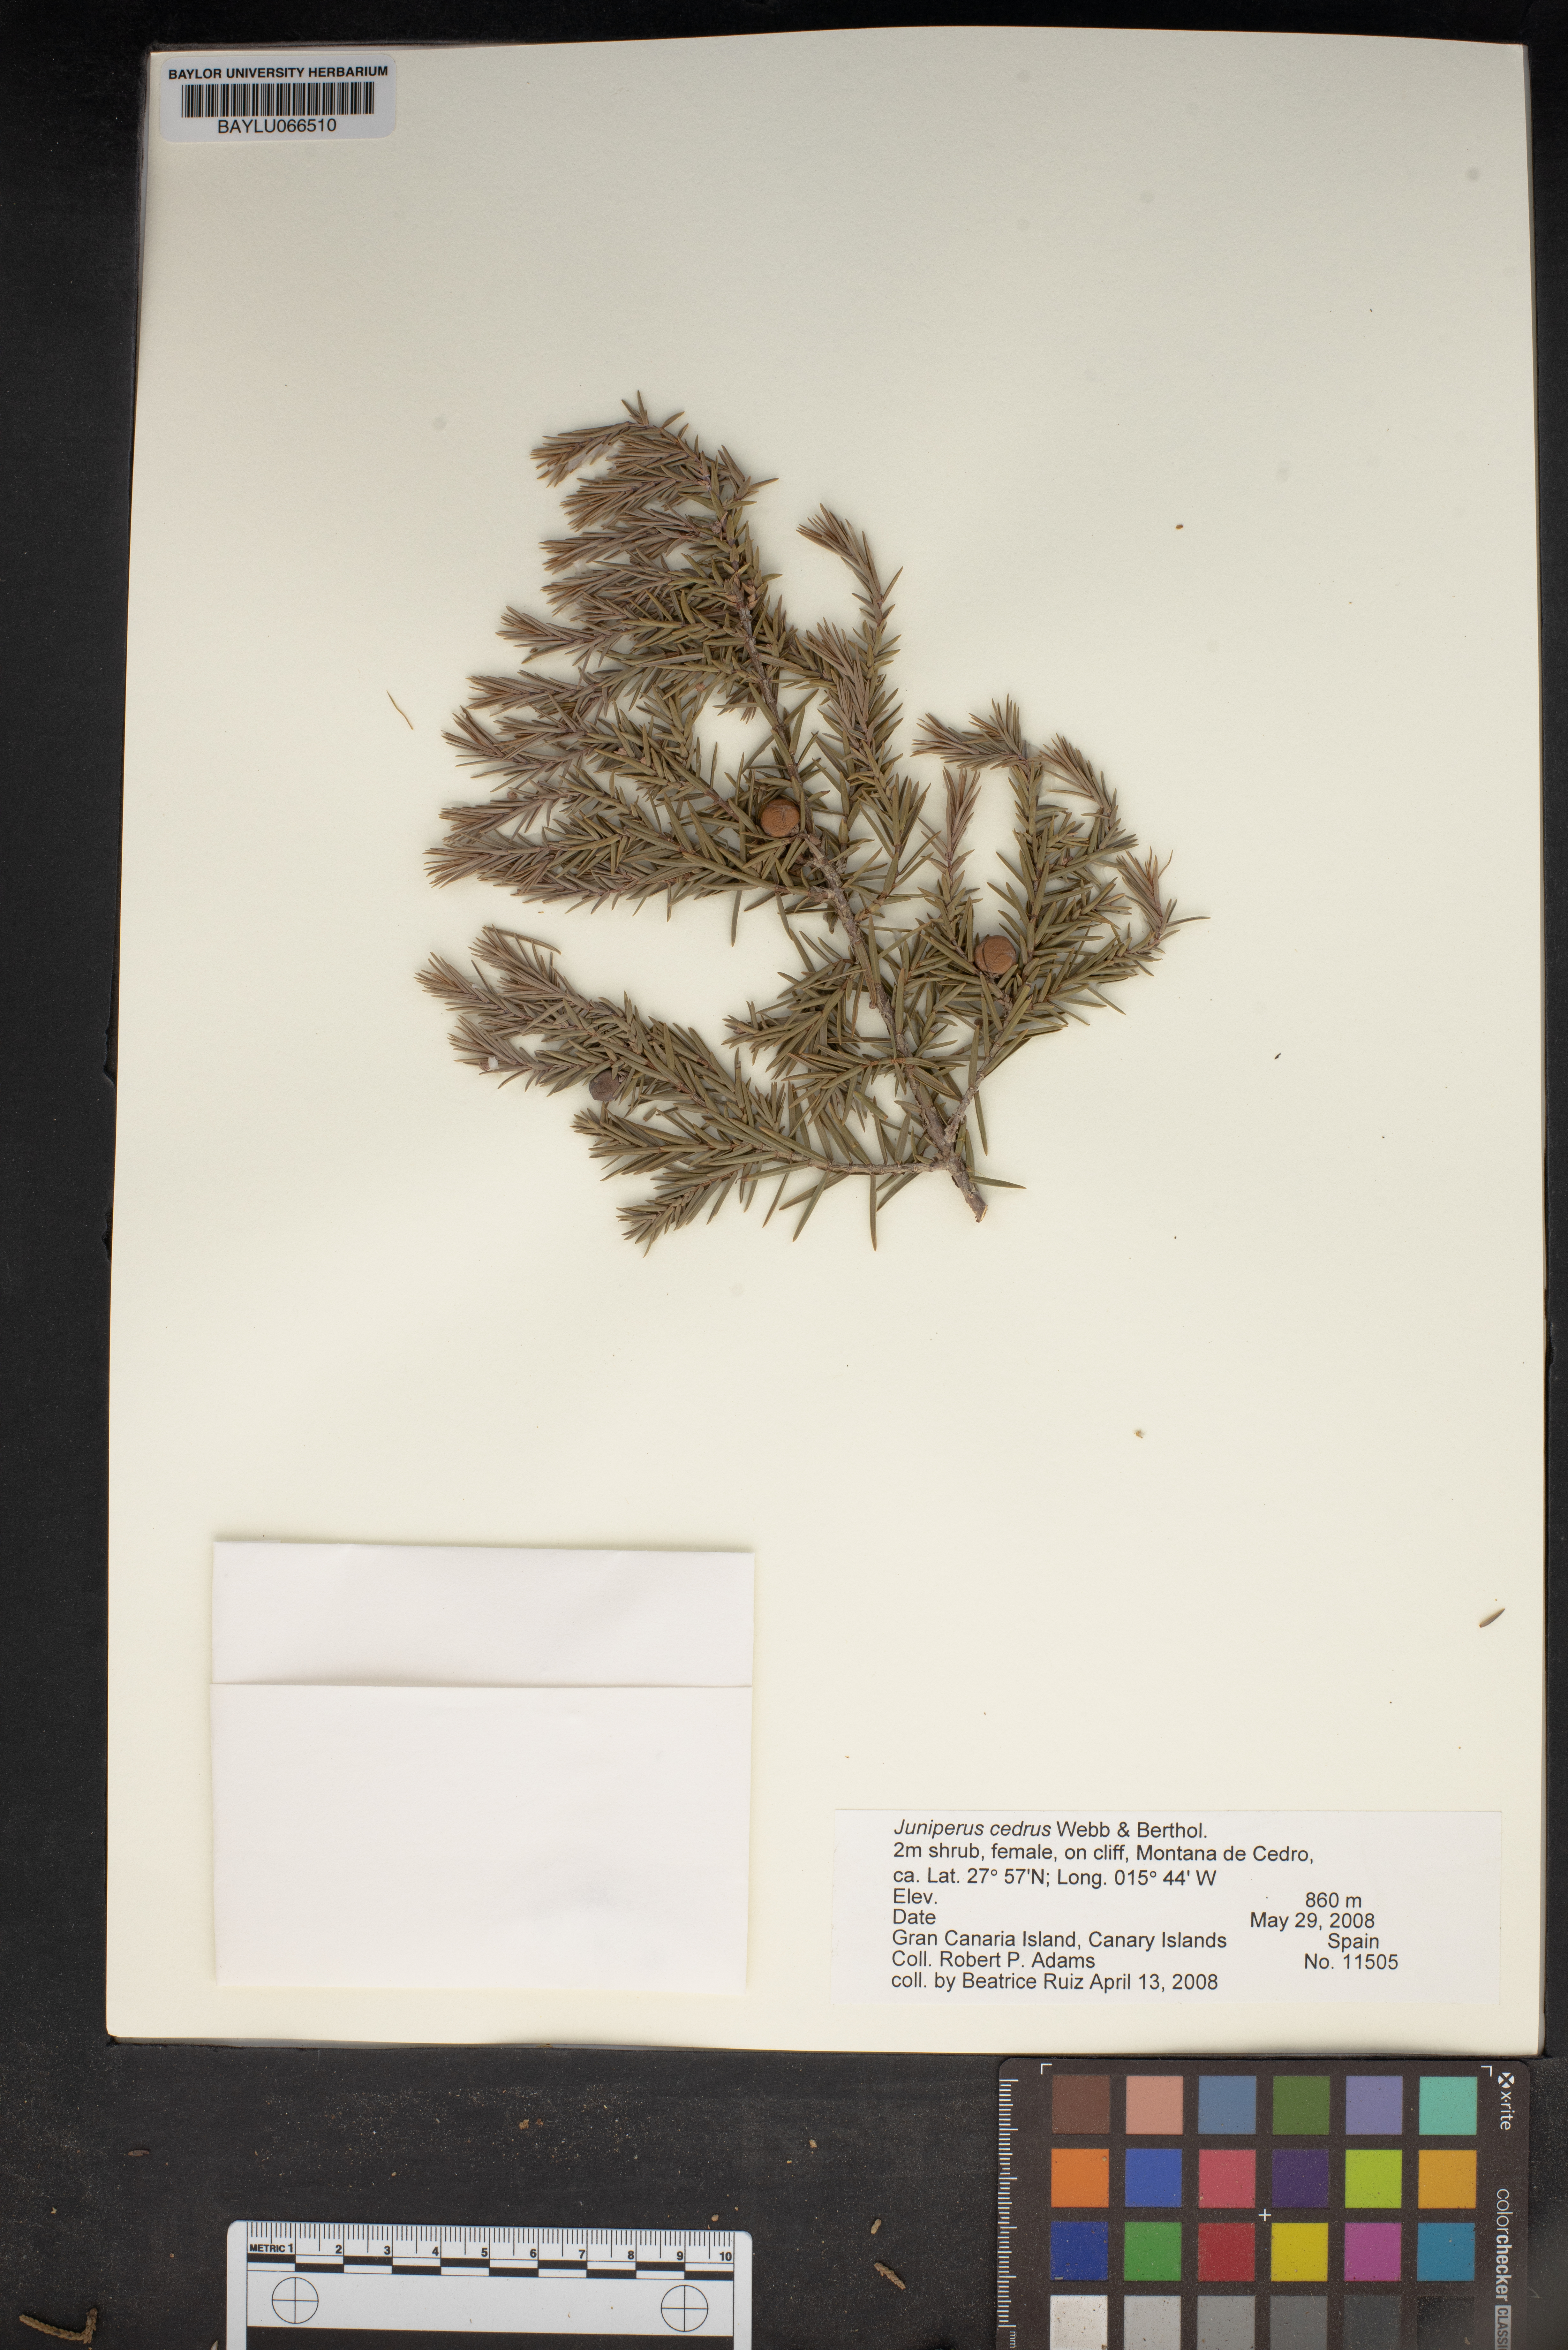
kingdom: Plantae
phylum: Tracheophyta
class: Pinopsida
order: Pinales
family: Cupressaceae
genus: Juniperus
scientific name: Juniperus cedrus
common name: Canary islands juniper
